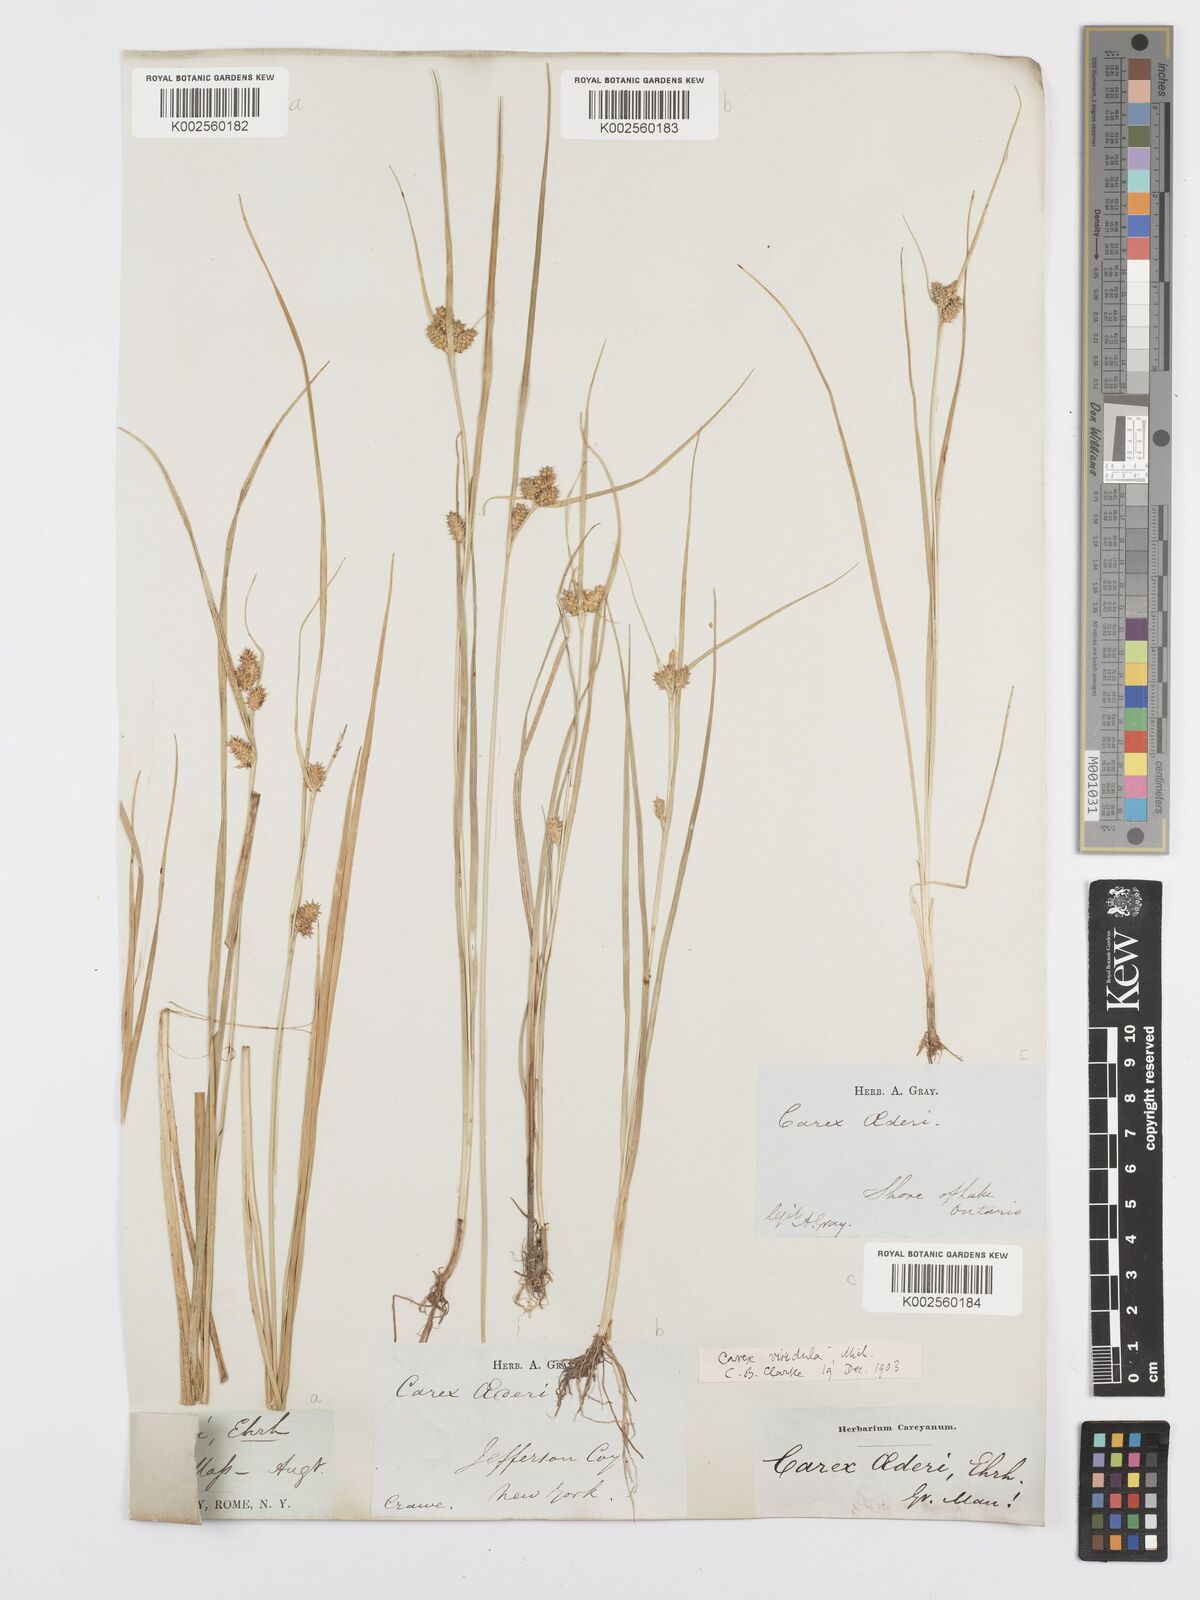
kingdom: Plantae
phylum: Tracheophyta
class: Liliopsida
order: Poales
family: Cyperaceae
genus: Carex
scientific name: Carex oederi
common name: Common & small-fruited yellow-sedge
